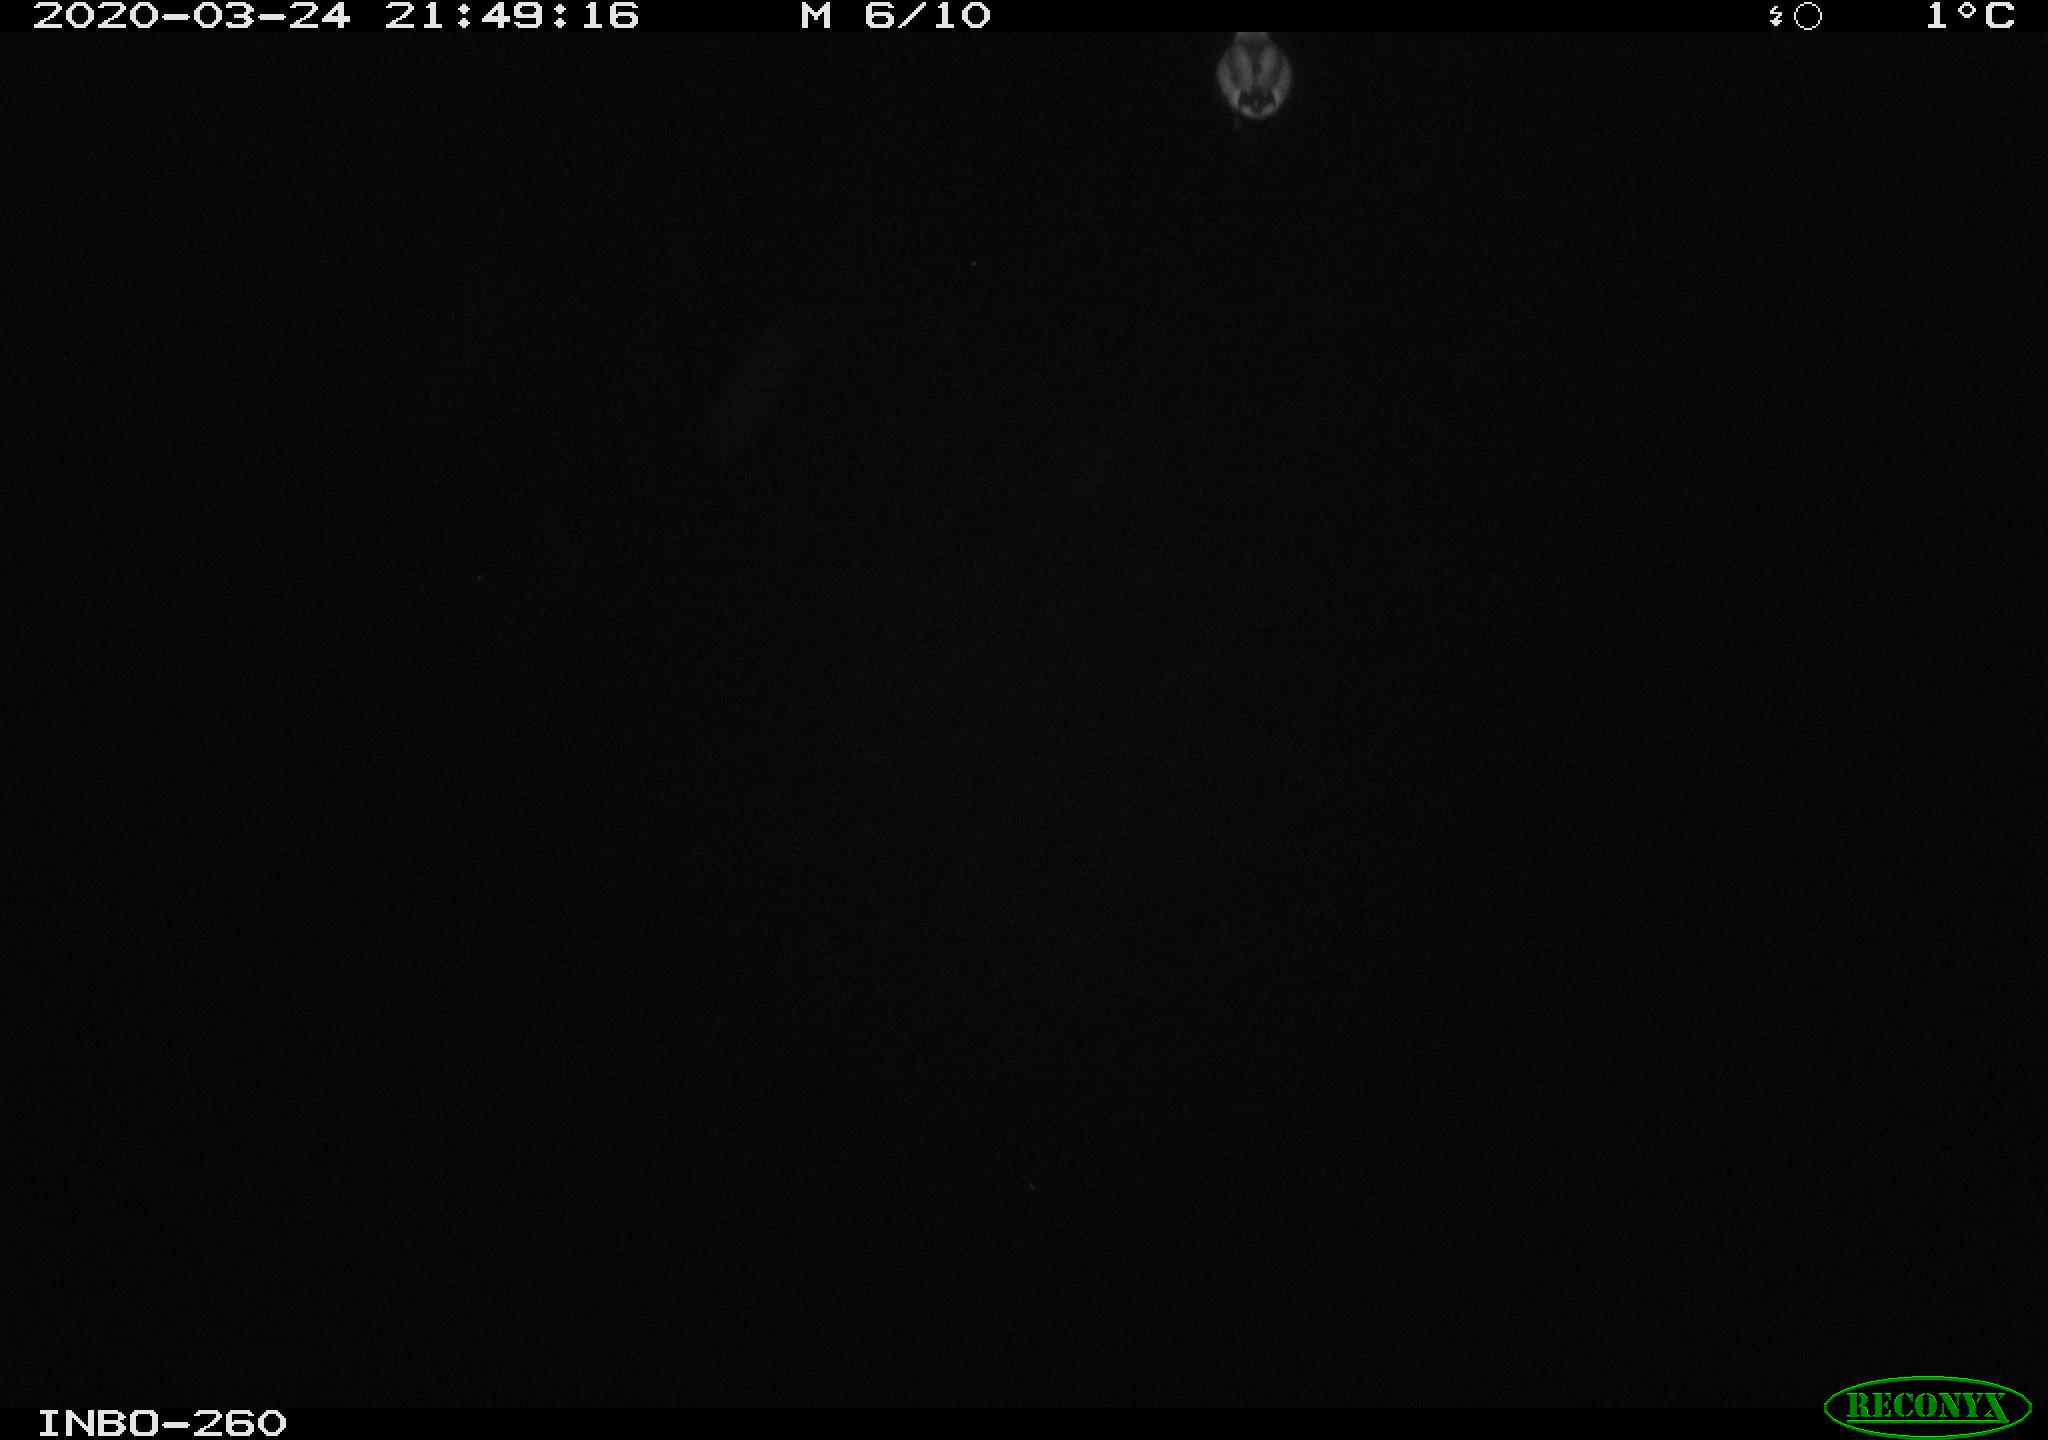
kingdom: Animalia
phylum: Chordata
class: Aves
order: Anseriformes
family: Anatidae
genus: Anas
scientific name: Anas platyrhynchos
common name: Mallard
